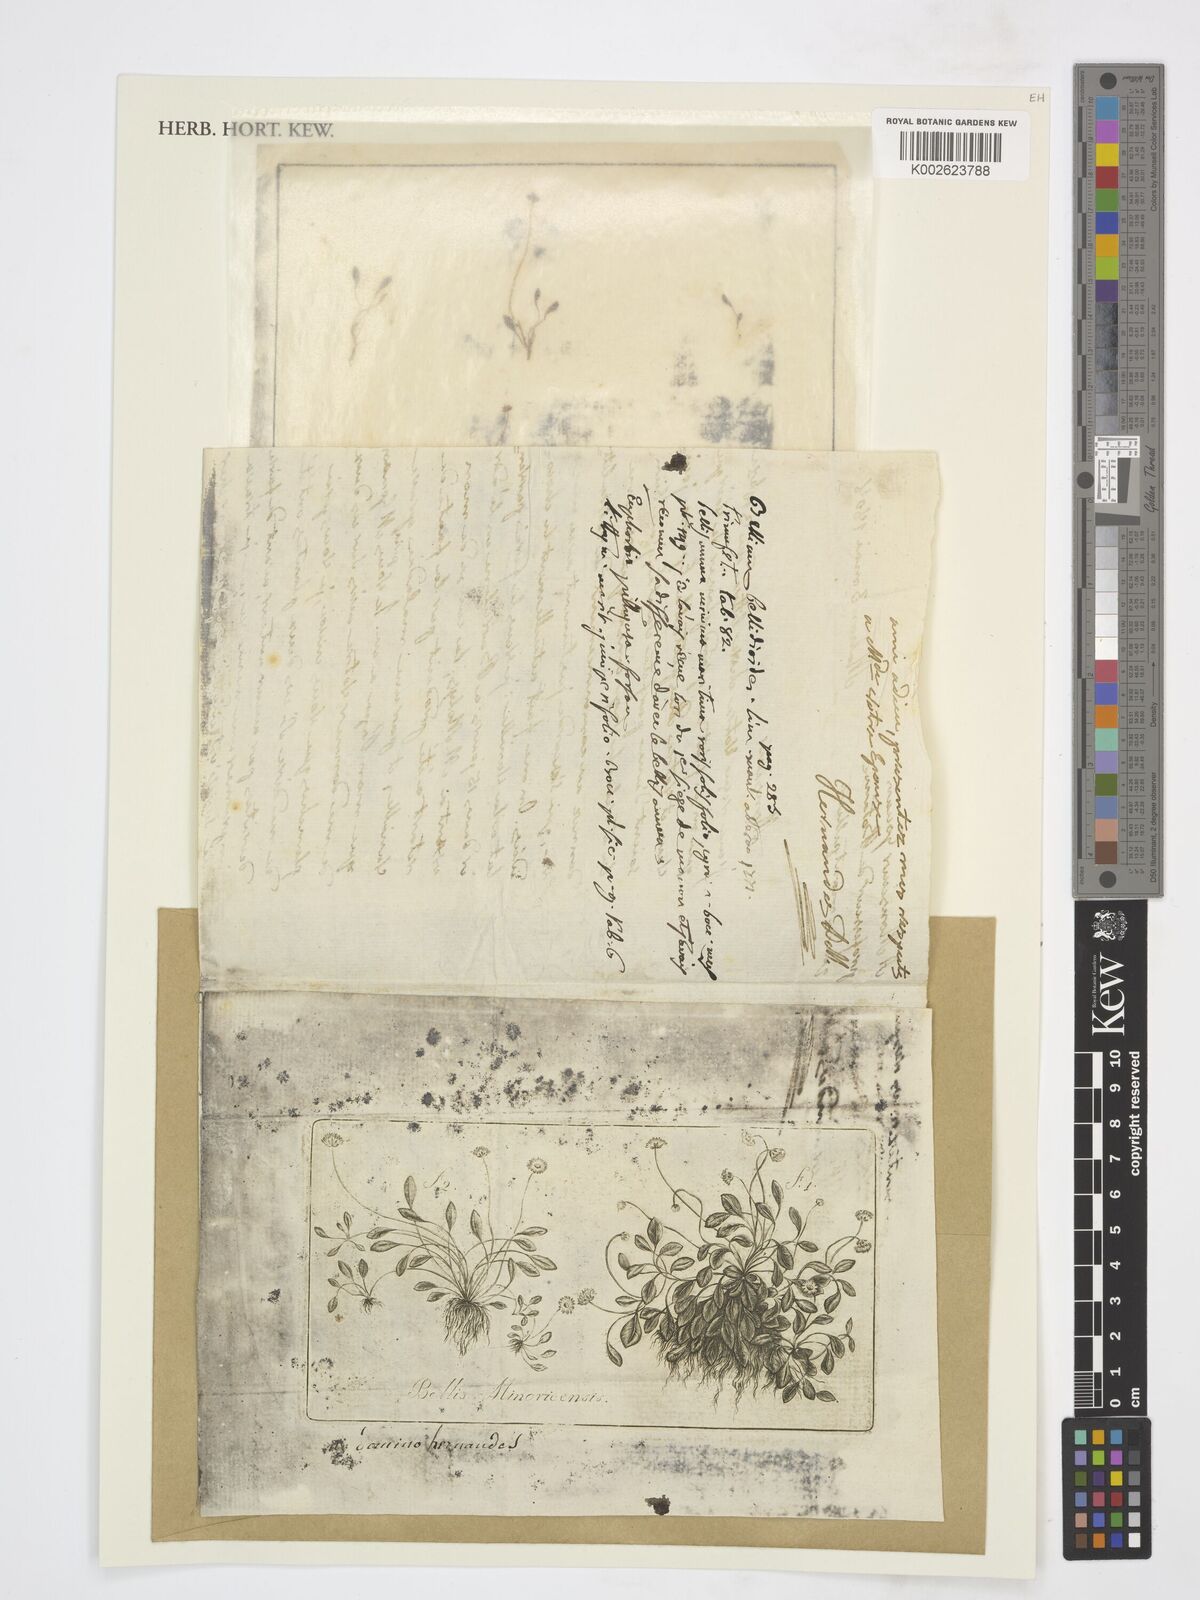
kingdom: Plantae
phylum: Tracheophyta
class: Magnoliopsida
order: Asterales
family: Asteraceae
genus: Bellium
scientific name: Bellium bellidioides
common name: False daisy
